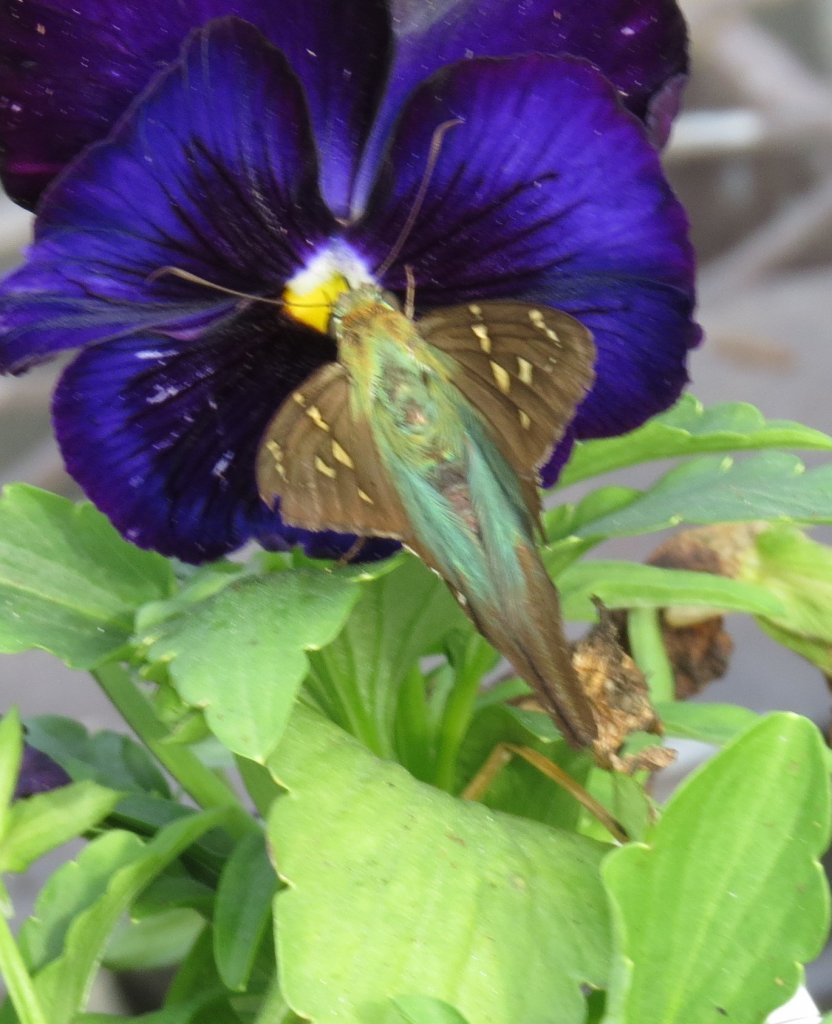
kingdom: Animalia
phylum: Arthropoda
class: Insecta
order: Lepidoptera
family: Hesperiidae
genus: Urbanus
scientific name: Urbanus proteus
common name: Long-tailed Skipper
